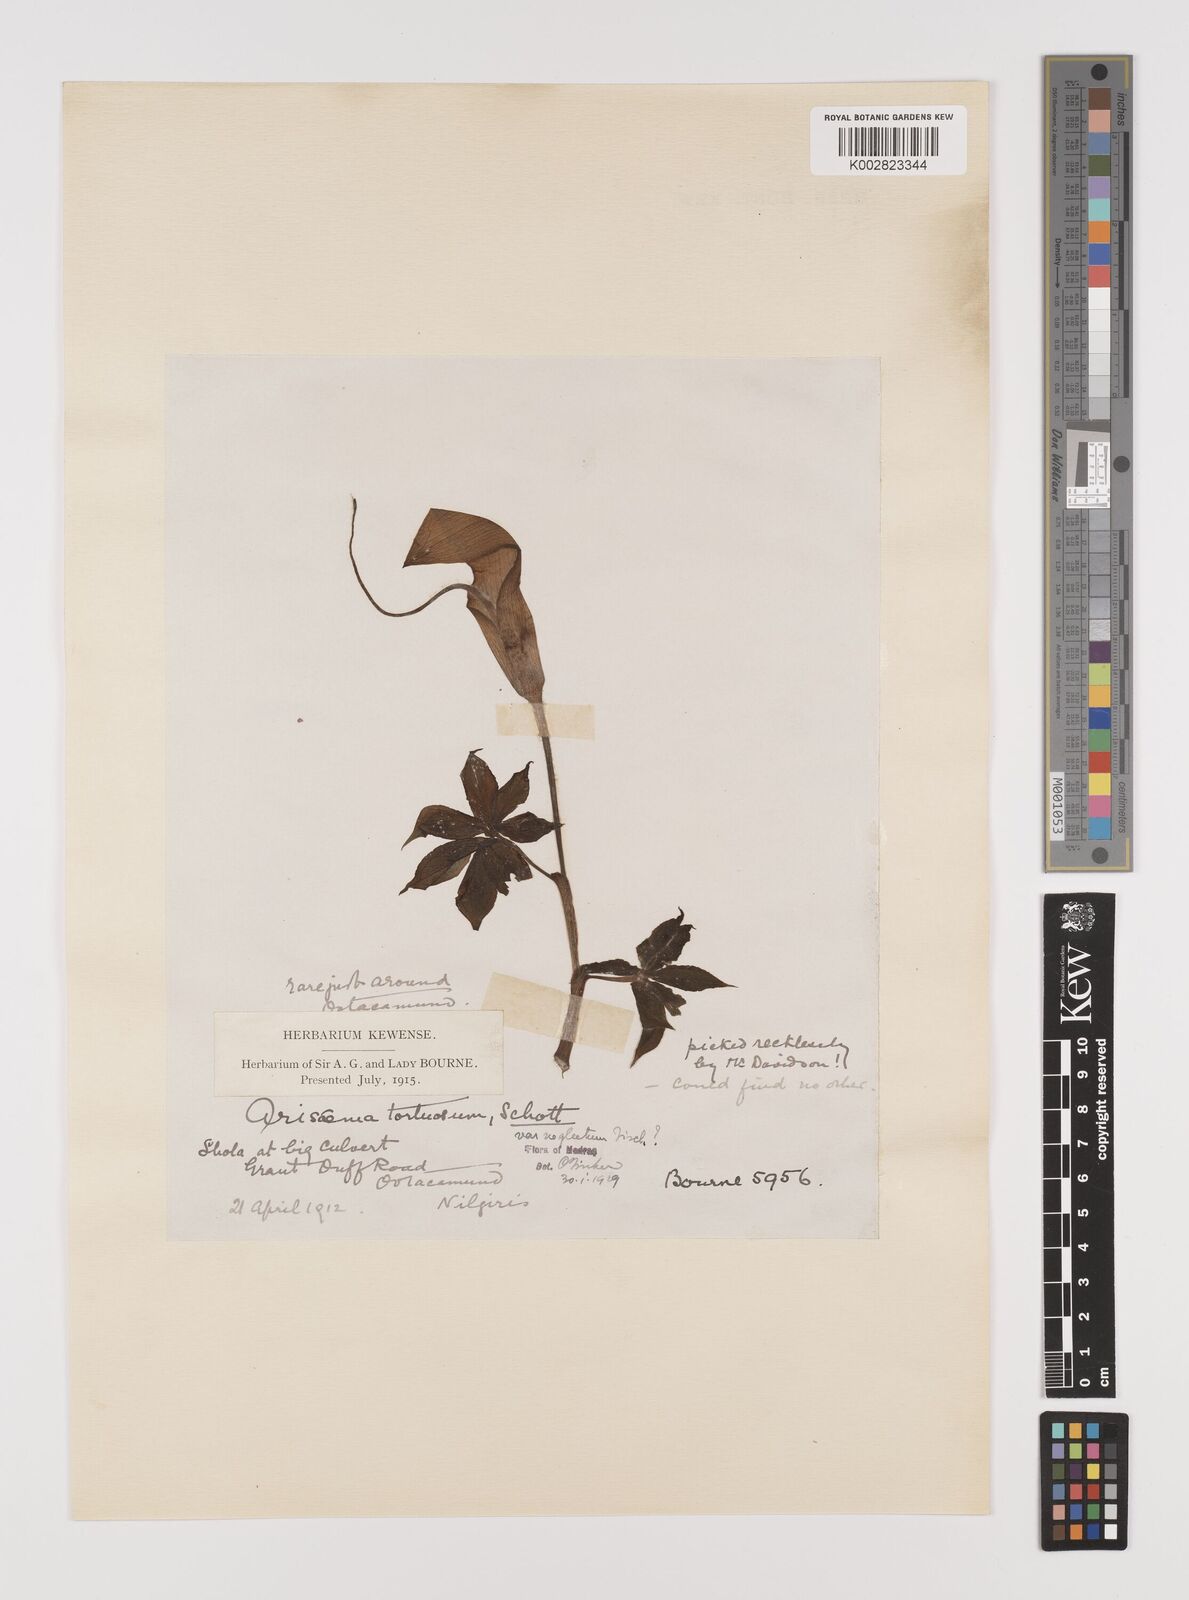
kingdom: Plantae
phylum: Tracheophyta
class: Liliopsida
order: Alismatales
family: Araceae
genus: Arisaema
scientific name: Arisaema tortuosum
